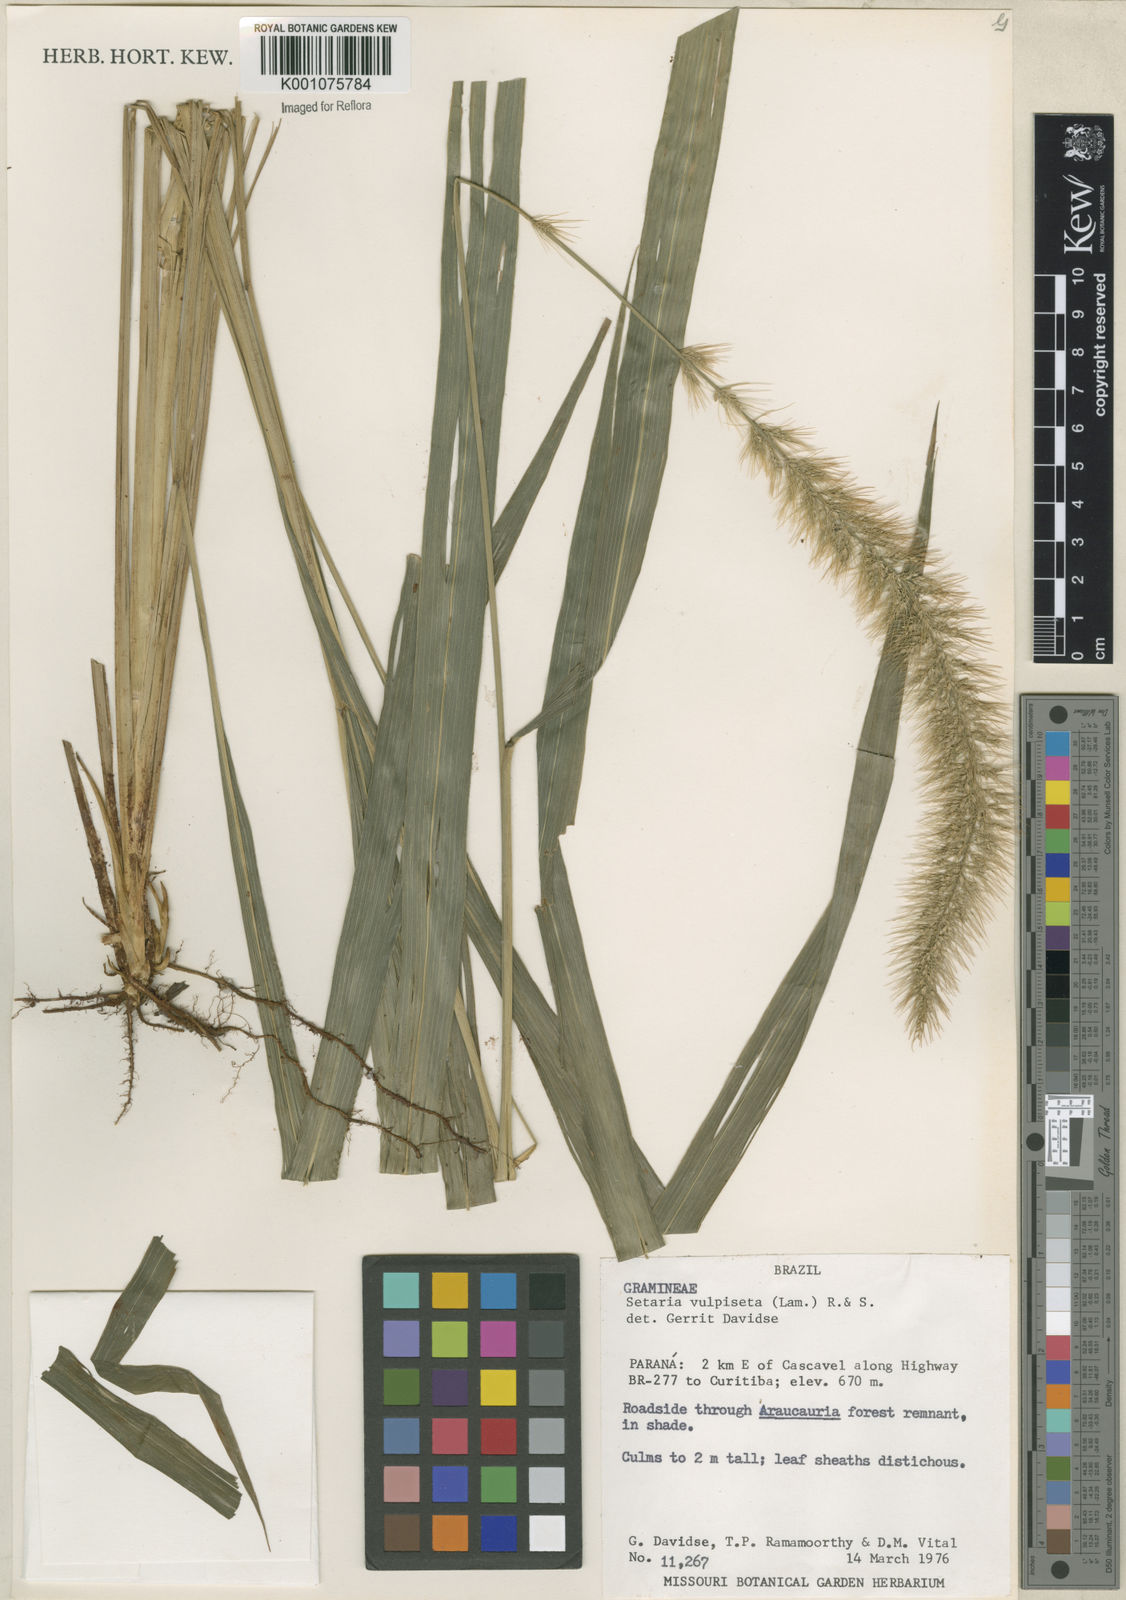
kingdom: Plantae
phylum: Tracheophyta
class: Liliopsida
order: Poales
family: Poaceae
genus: Setaria
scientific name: Setaria vulpiseta
